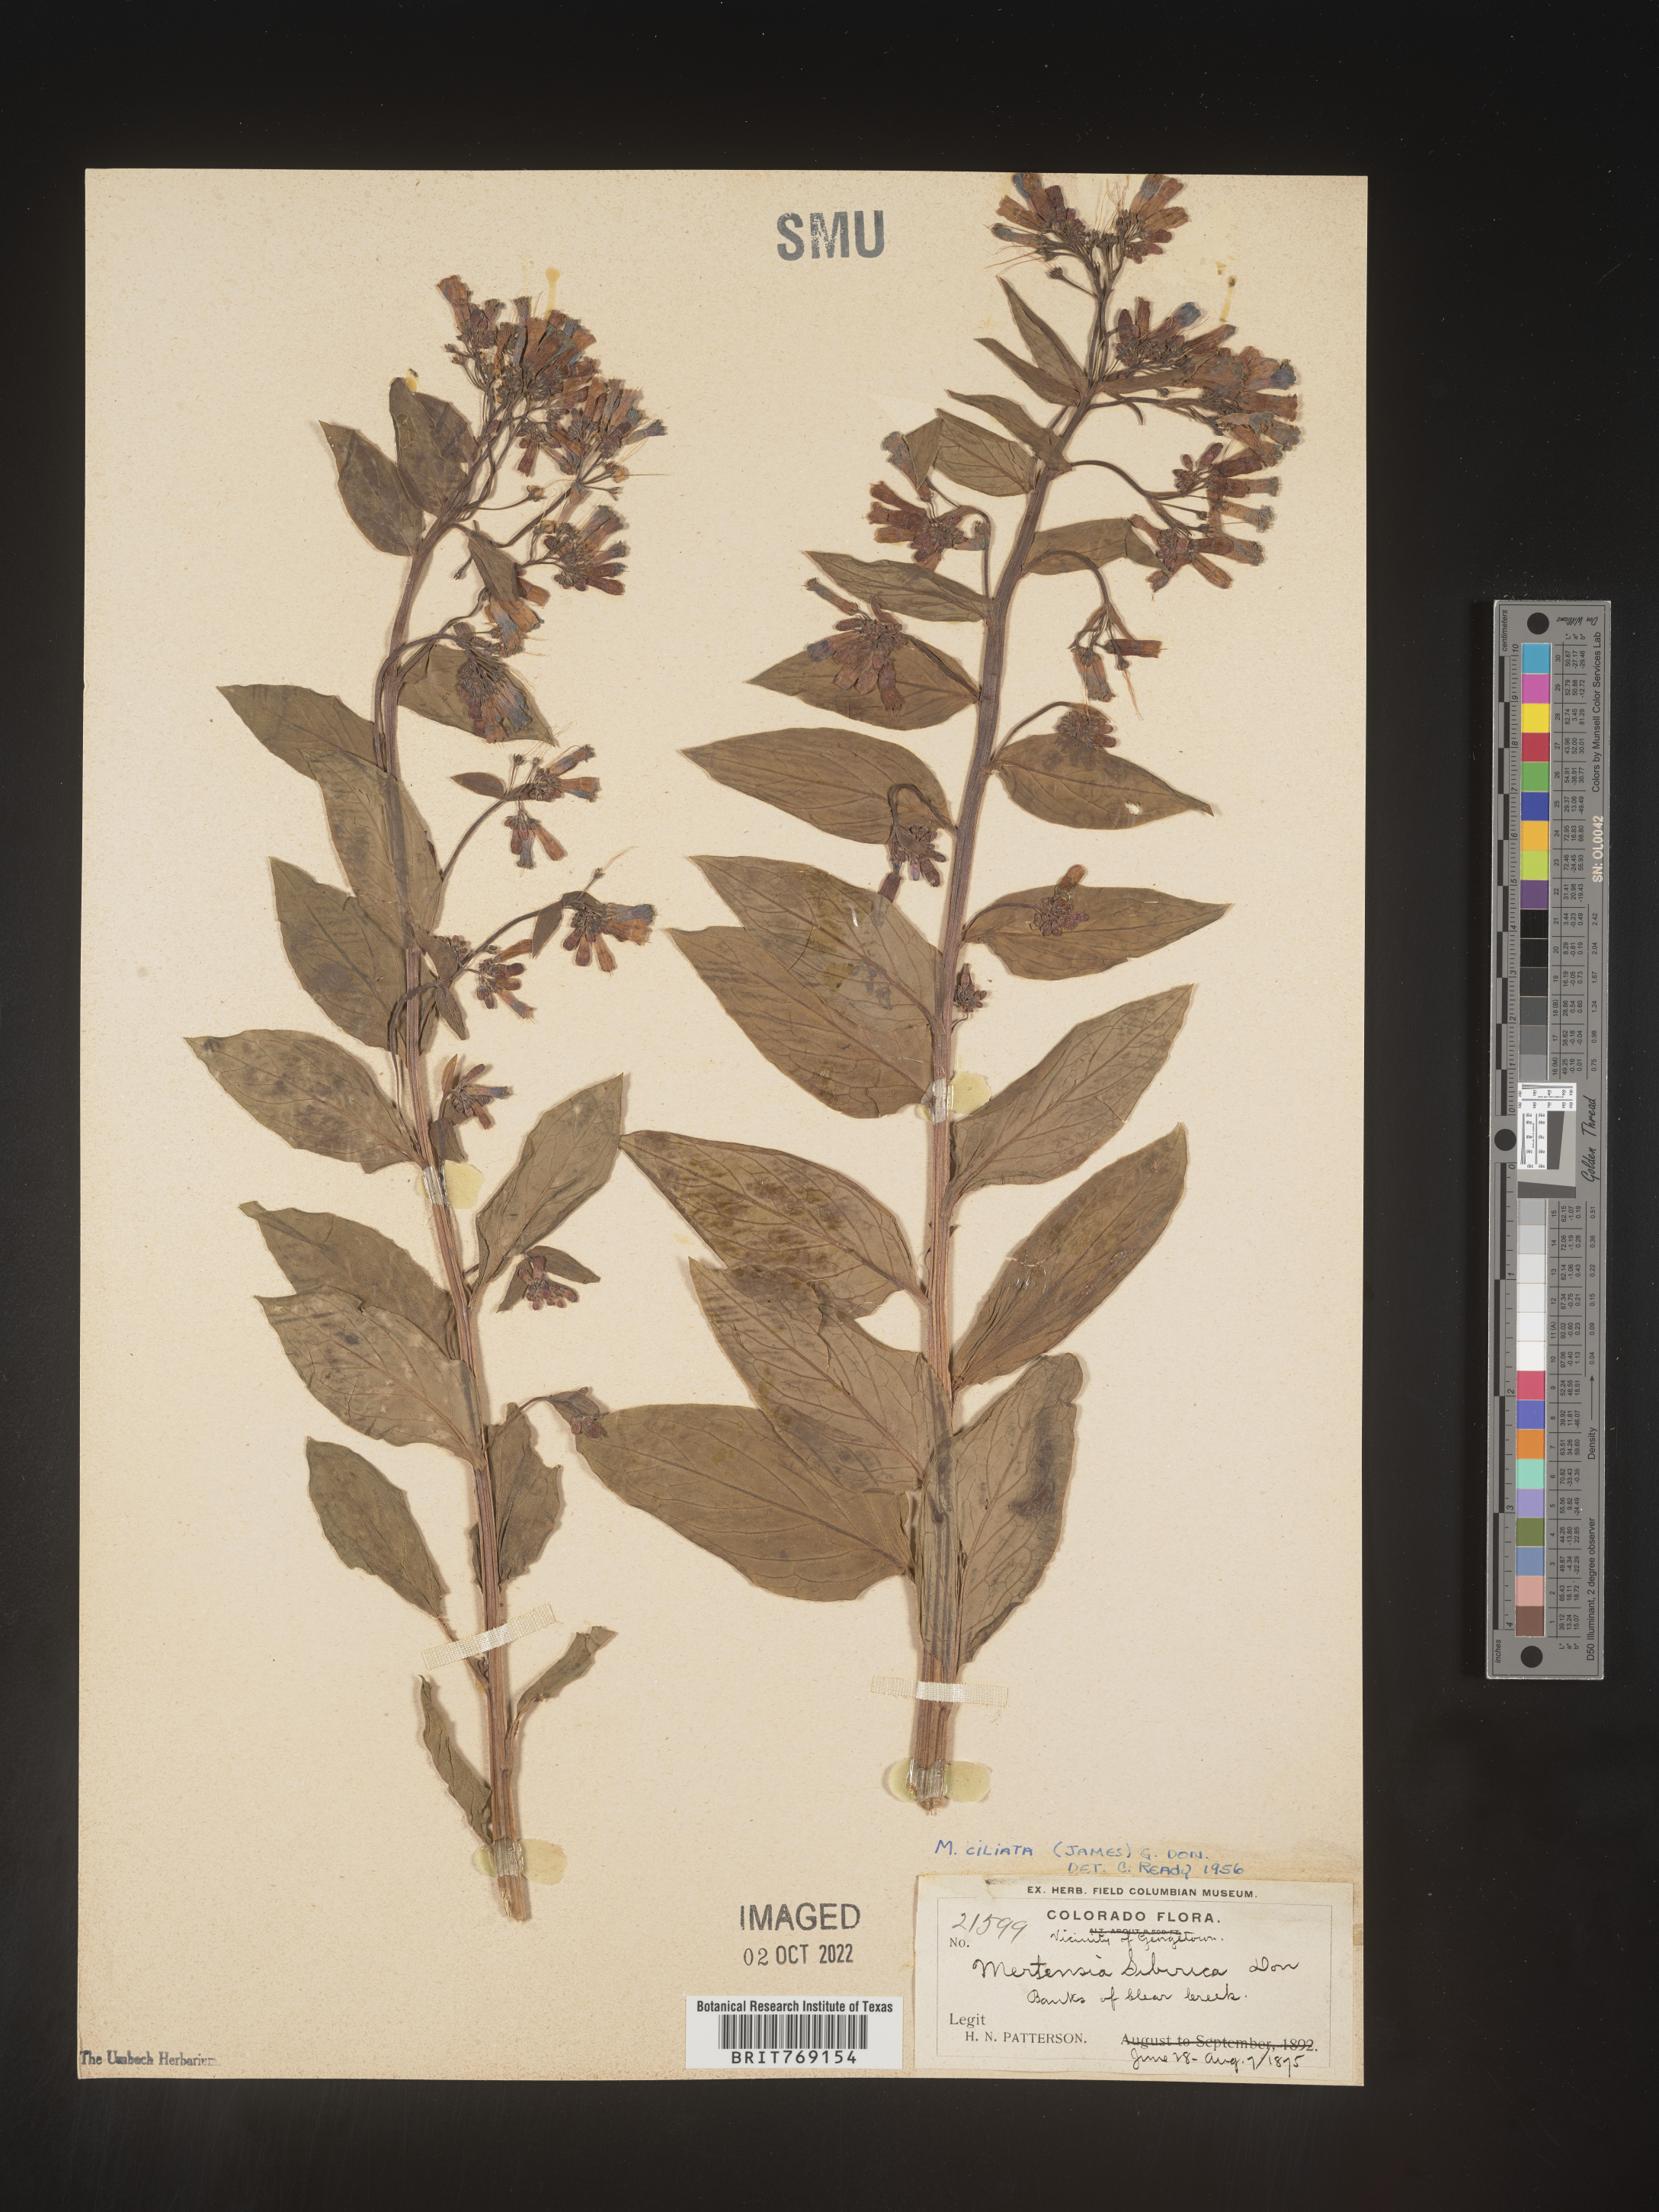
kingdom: Plantae
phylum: Tracheophyta
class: Magnoliopsida
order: Boraginales
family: Boraginaceae
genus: Mertensia
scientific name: Mertensia
